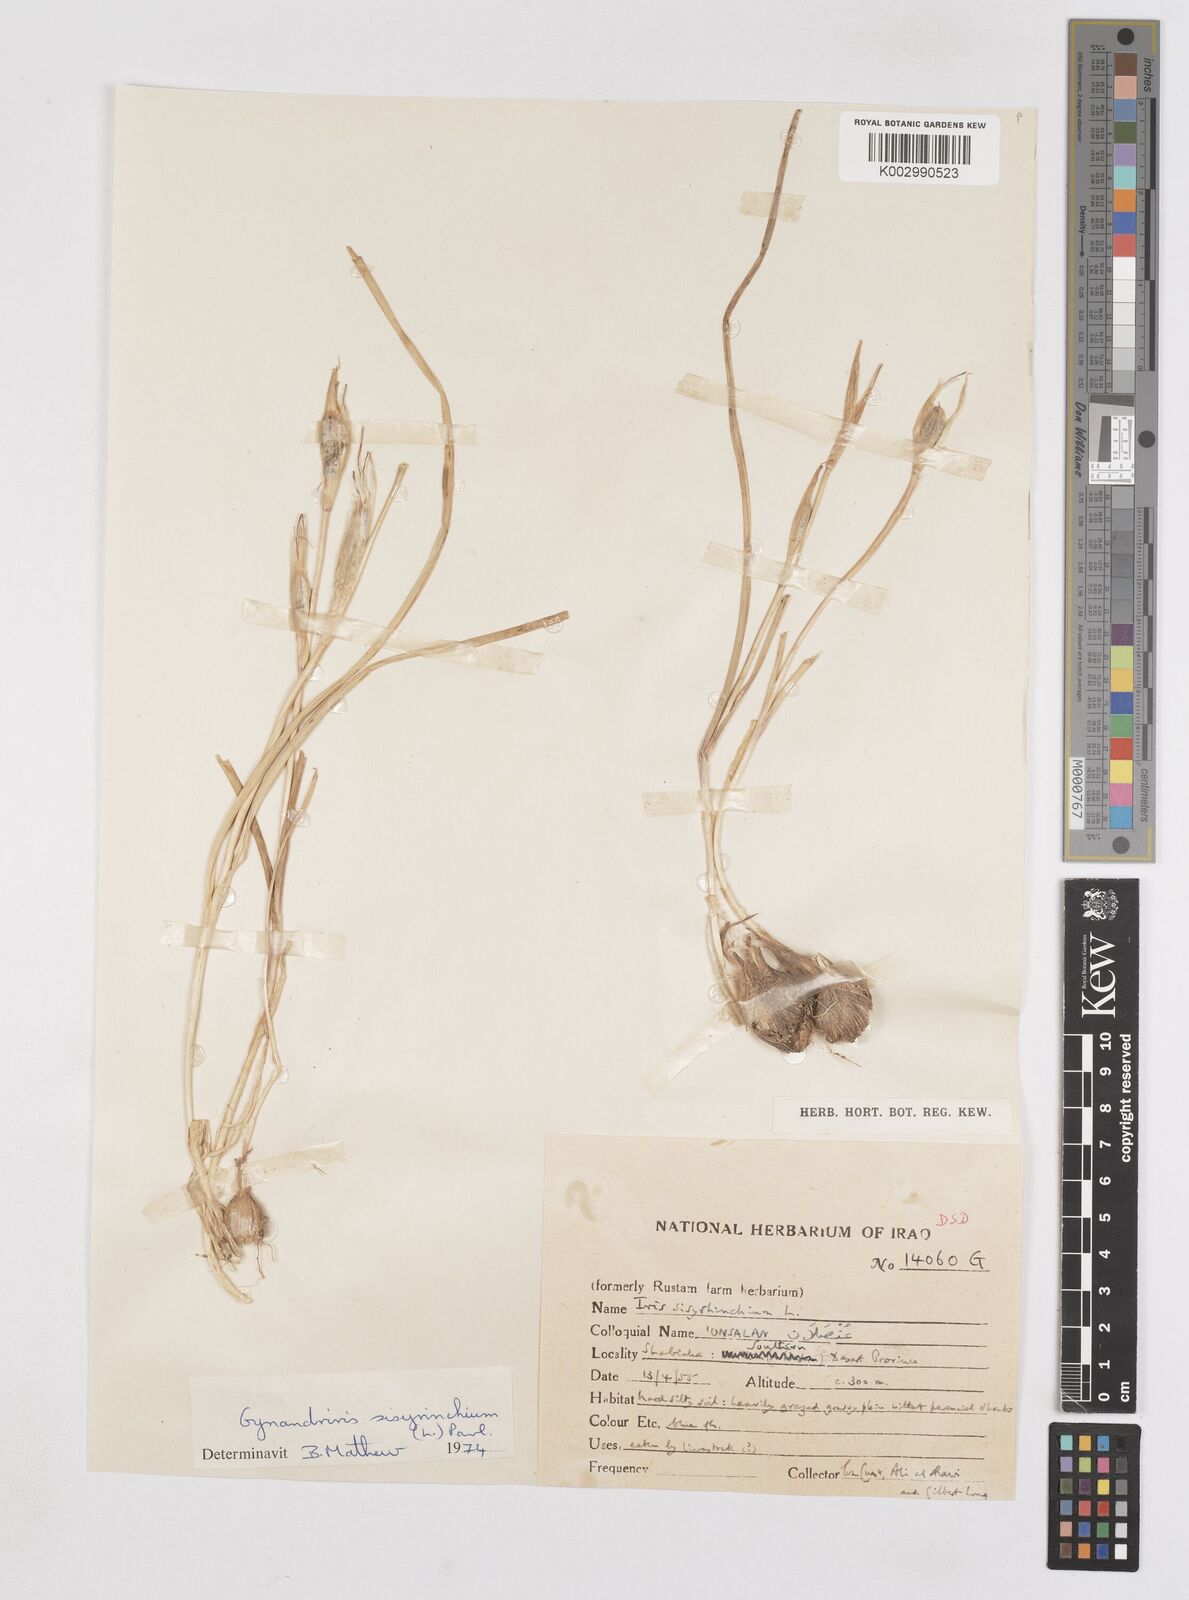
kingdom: Plantae
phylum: Tracheophyta
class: Liliopsida
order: Asparagales
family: Iridaceae
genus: Moraea
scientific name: Moraea sisyrinchium
